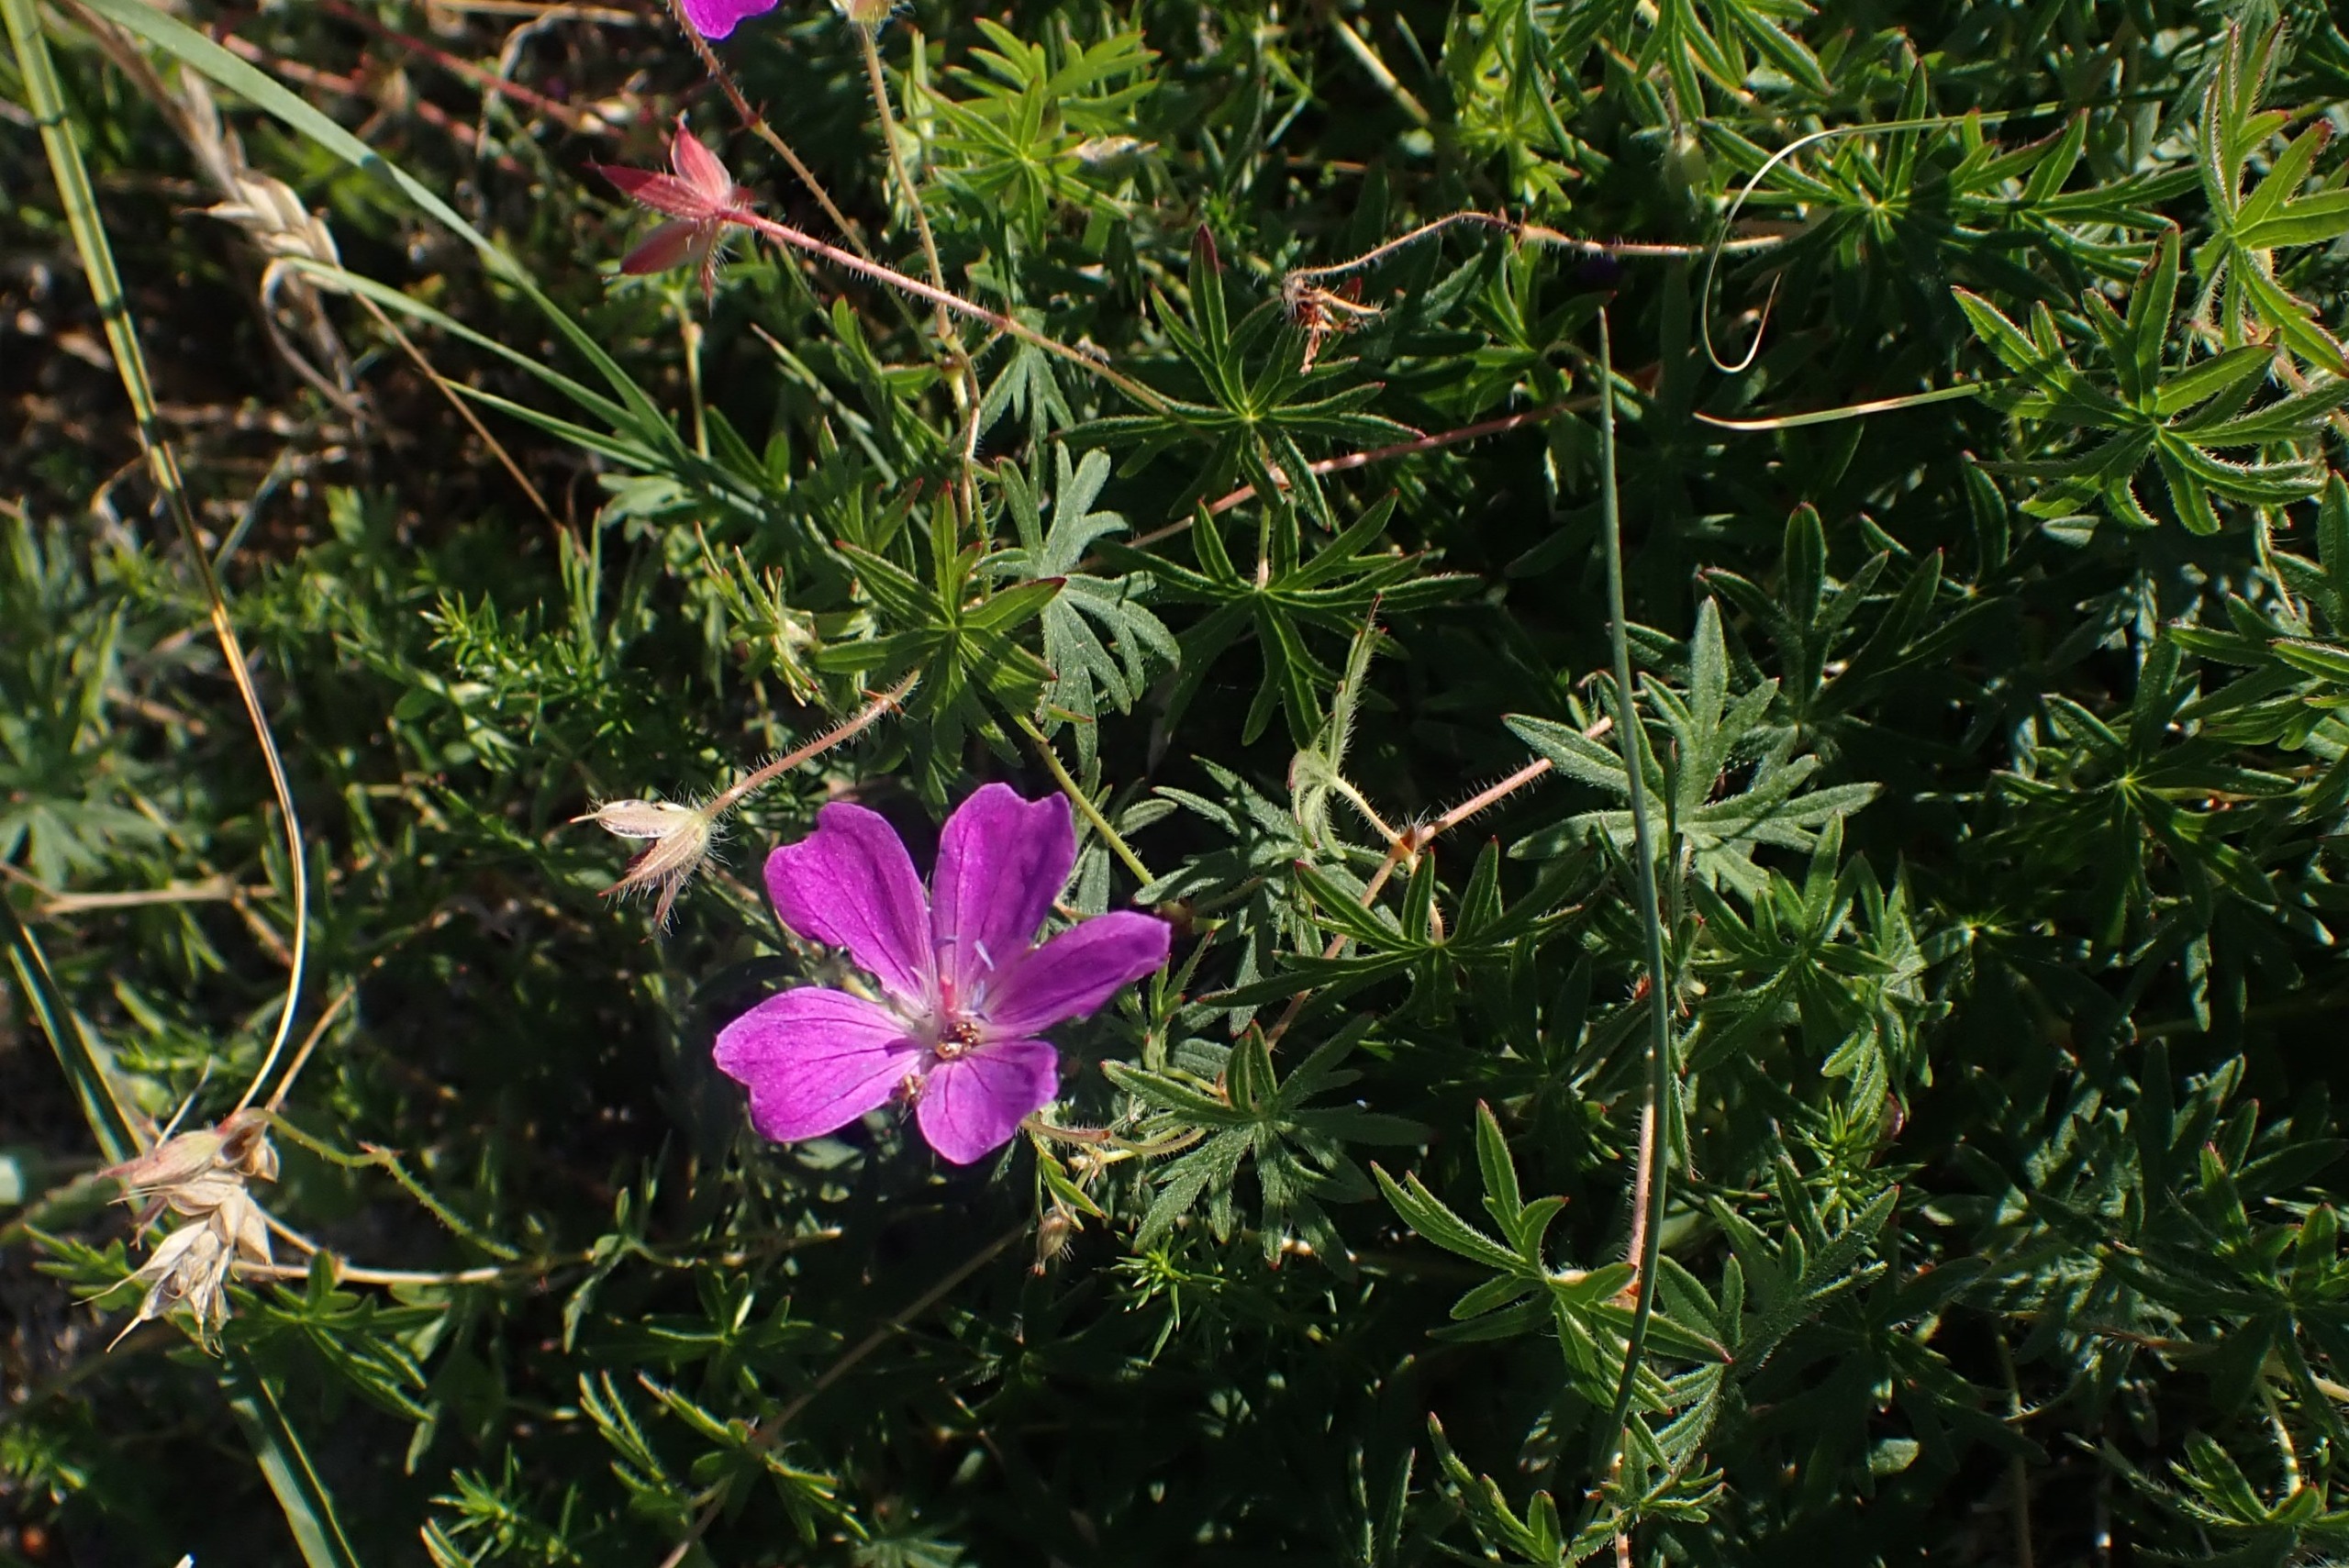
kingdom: Plantae
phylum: Tracheophyta
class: Magnoliopsida
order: Geraniales
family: Geraniaceae
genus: Geranium
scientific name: Geranium sanguineum
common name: Blodrød storkenæb
